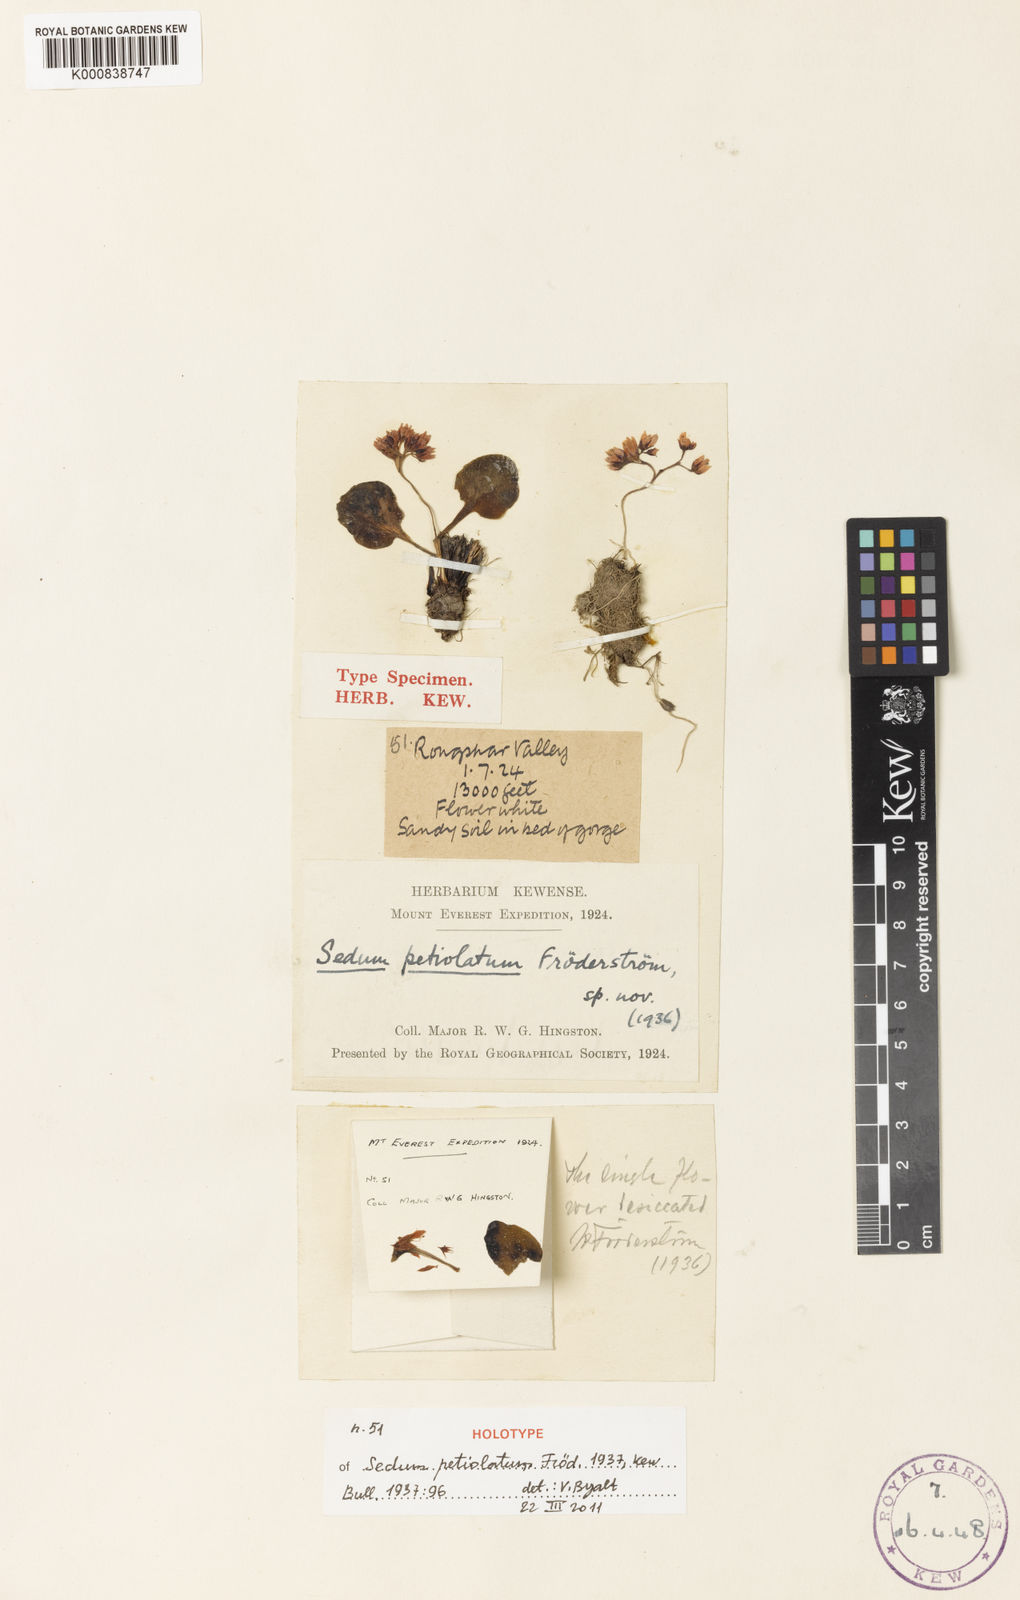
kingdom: Plantae
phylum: Tracheophyta
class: Magnoliopsida
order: Saxifragales
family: Crassulaceae
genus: Sedum
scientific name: Sedum
